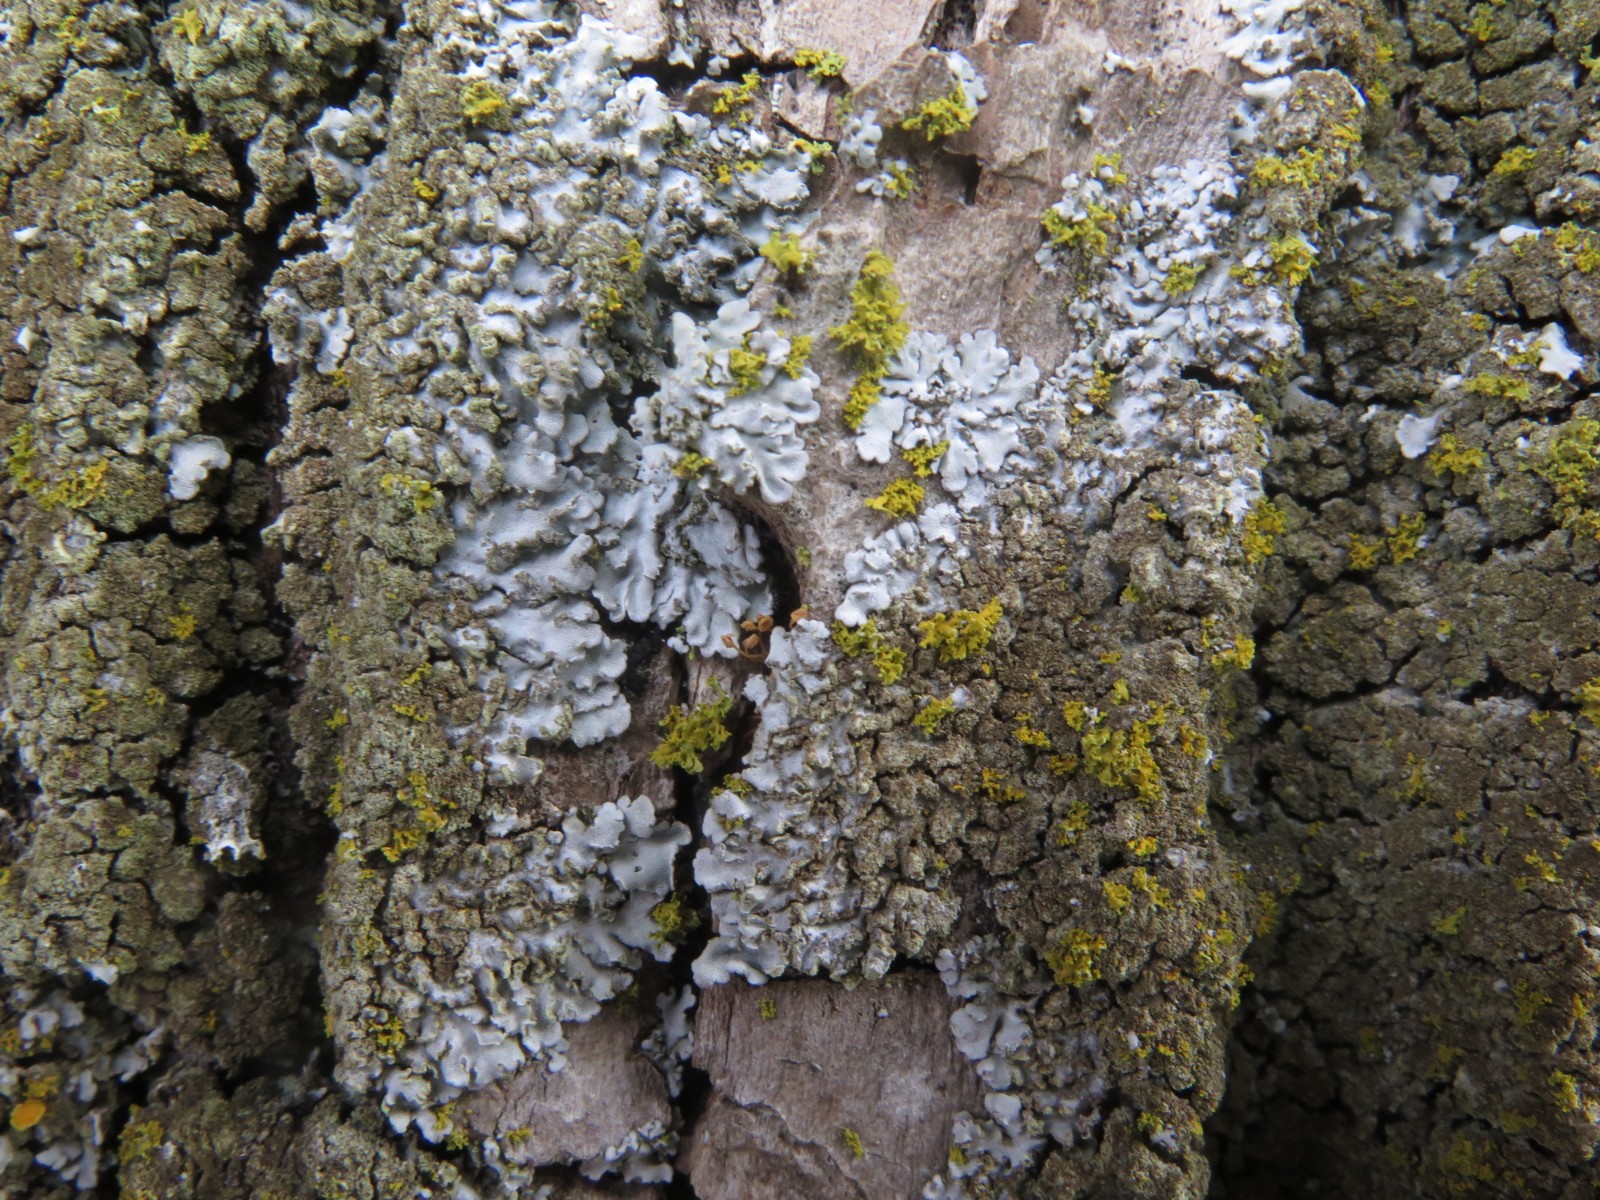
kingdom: Fungi
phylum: Ascomycota
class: Lecanoromycetes
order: Caliciales
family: Physciaceae
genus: Physconia
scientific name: Physconia
